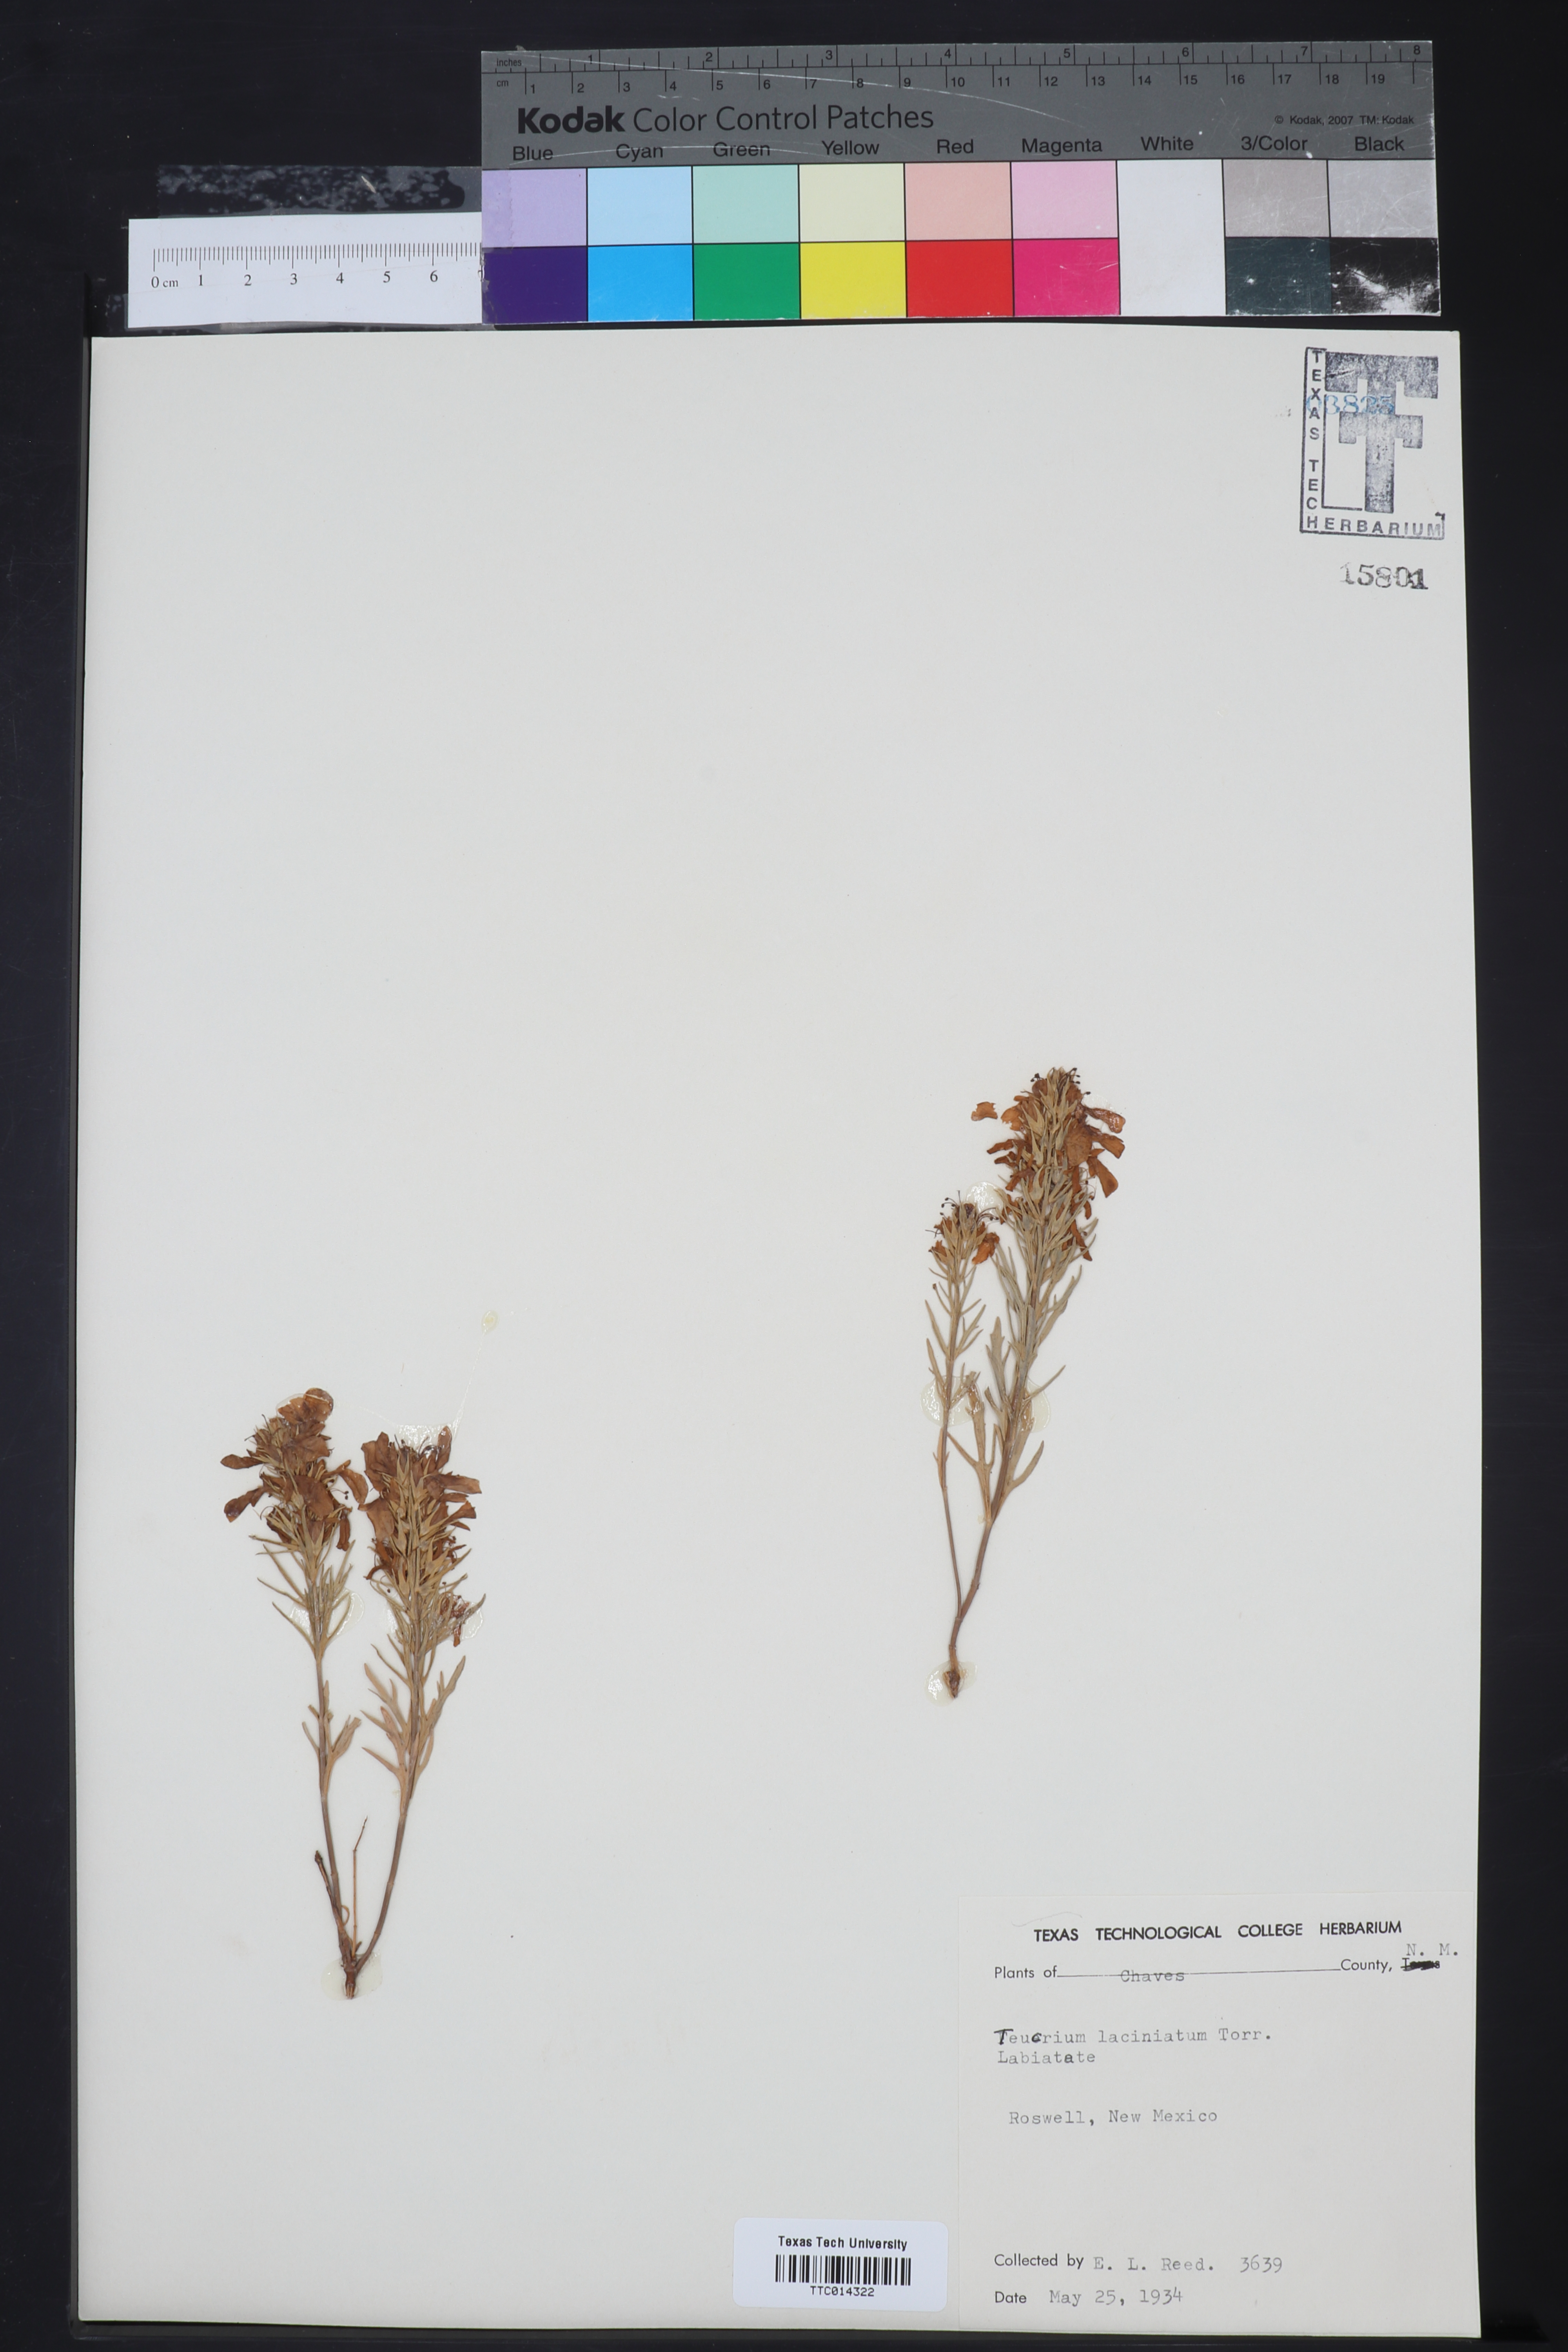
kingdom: Plantae
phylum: Tracheophyta
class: Magnoliopsida
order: Lamiales
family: Lamiaceae
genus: Teucrium
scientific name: Teucrium laciniatum
